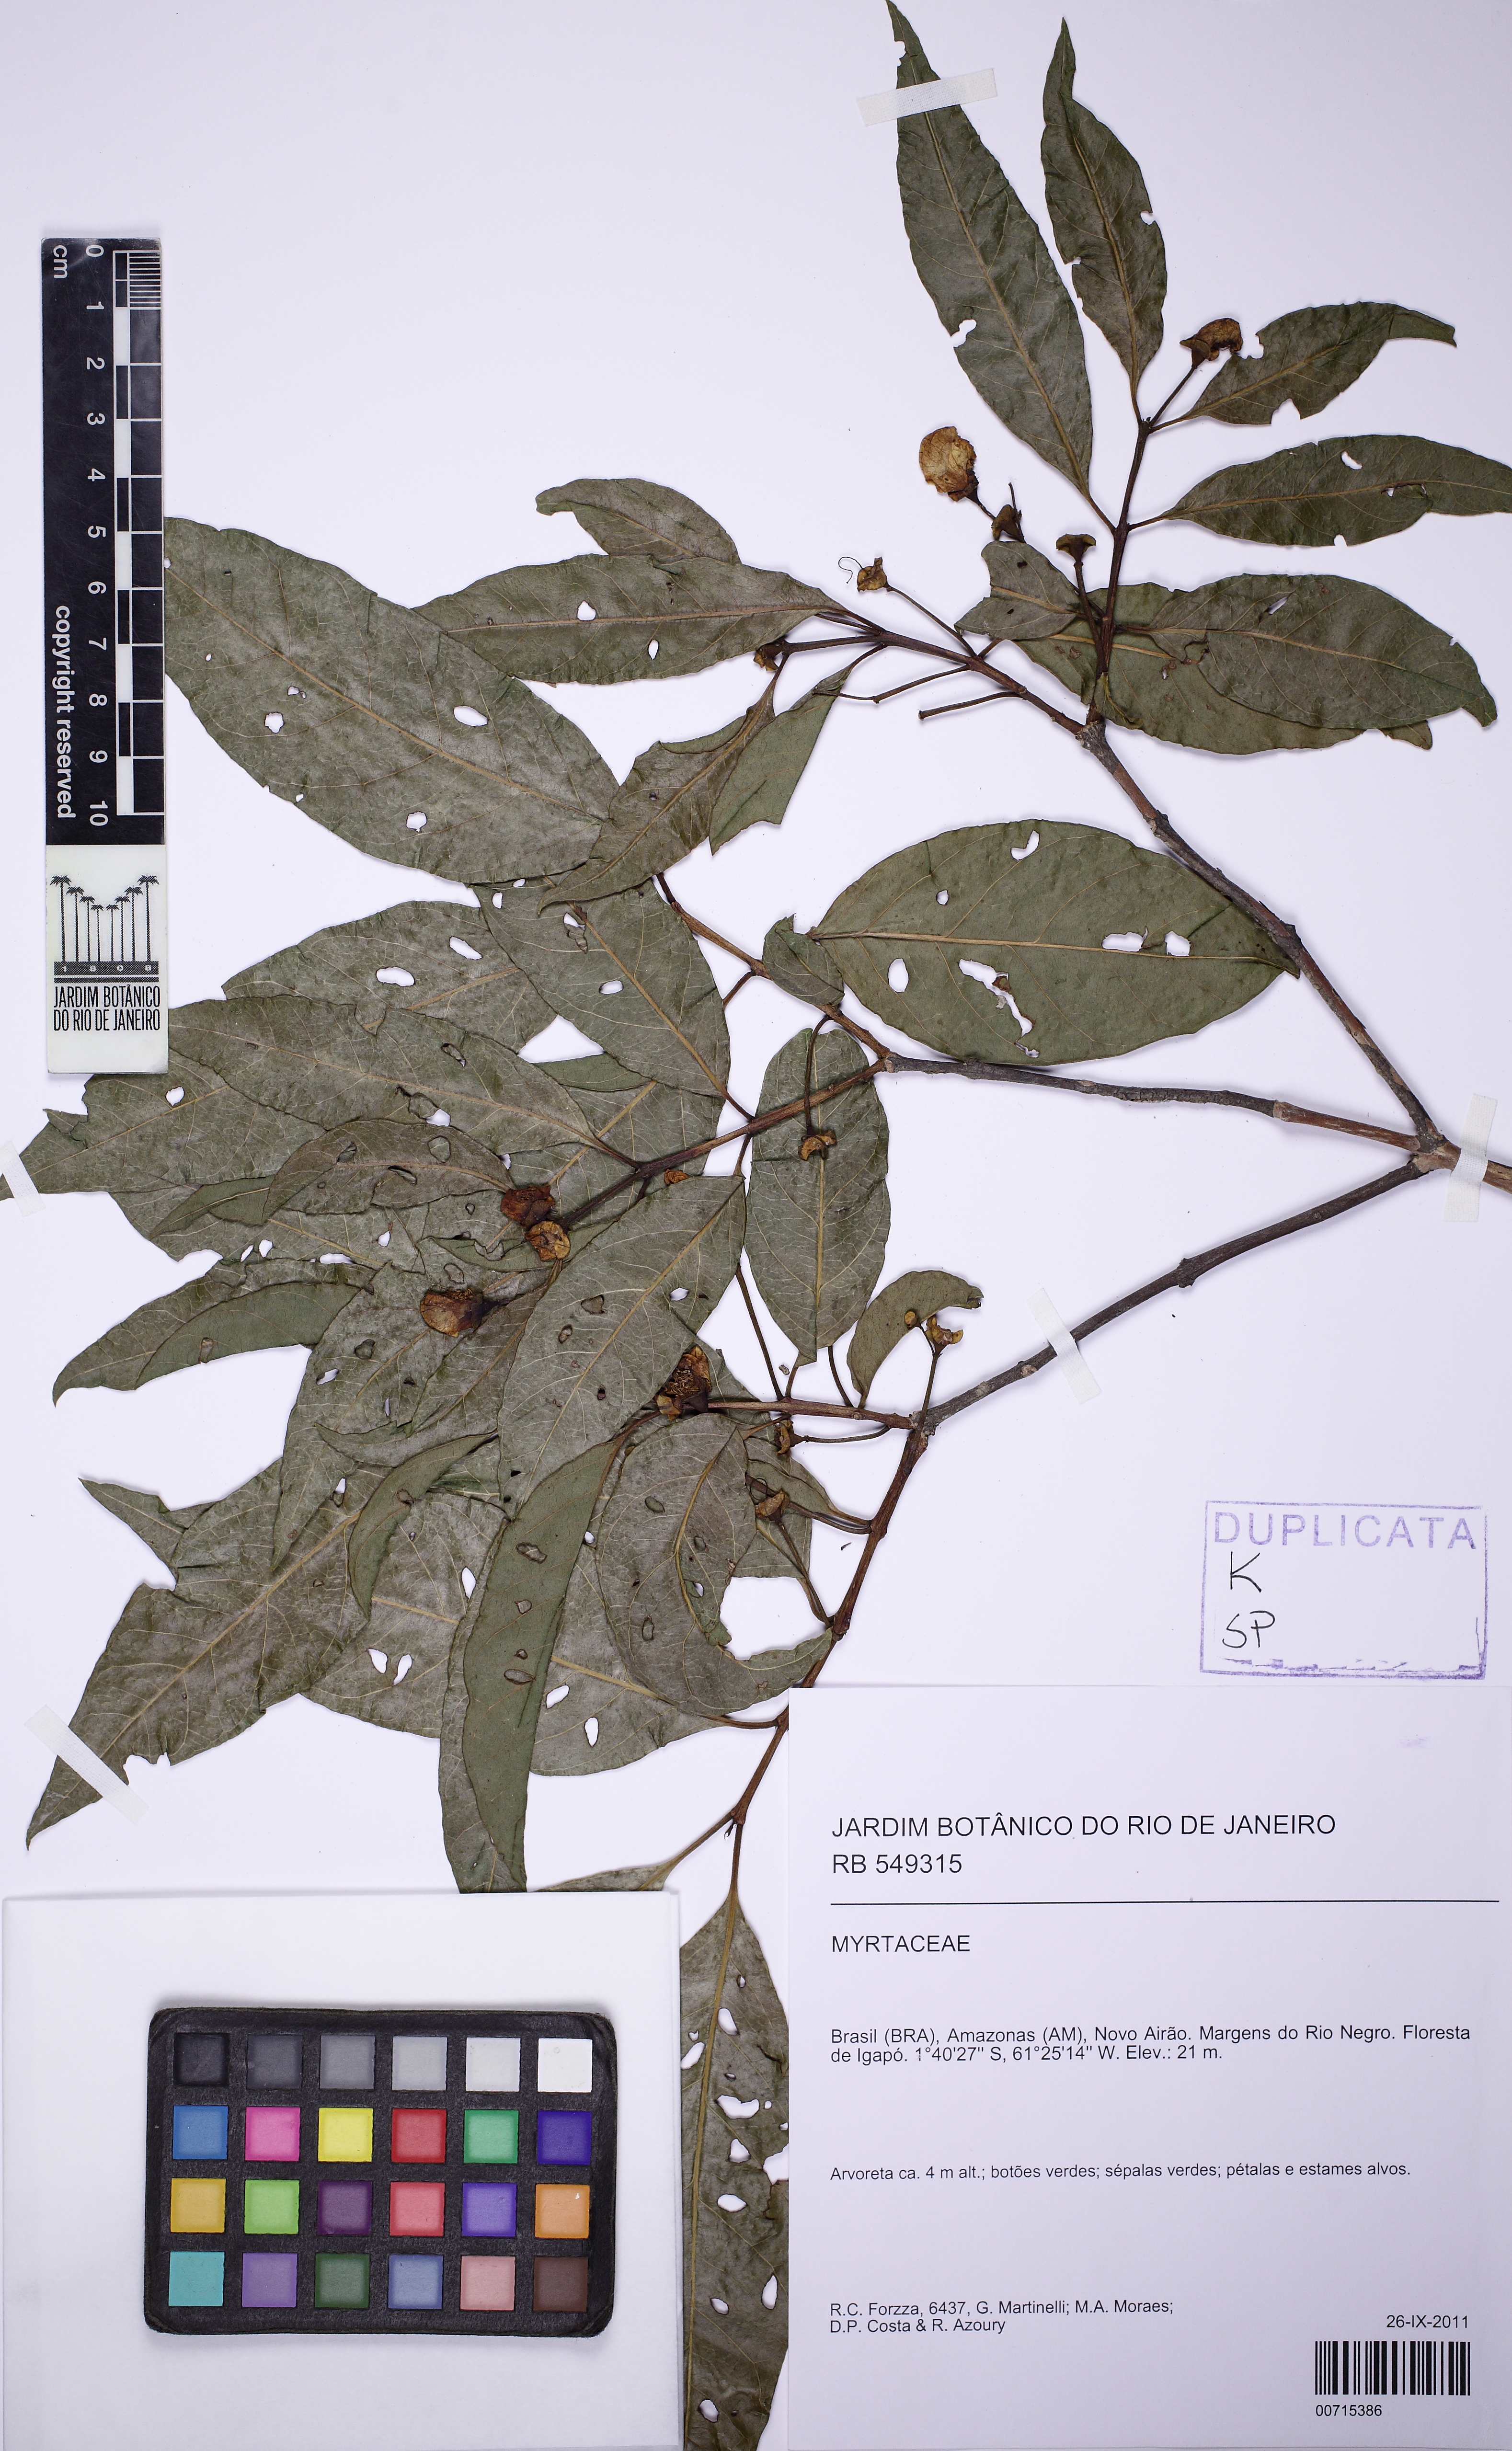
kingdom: Plantae
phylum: Tracheophyta
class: Magnoliopsida
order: Myrtales
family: Myrtaceae
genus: Psidium
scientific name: Psidium densicomum
